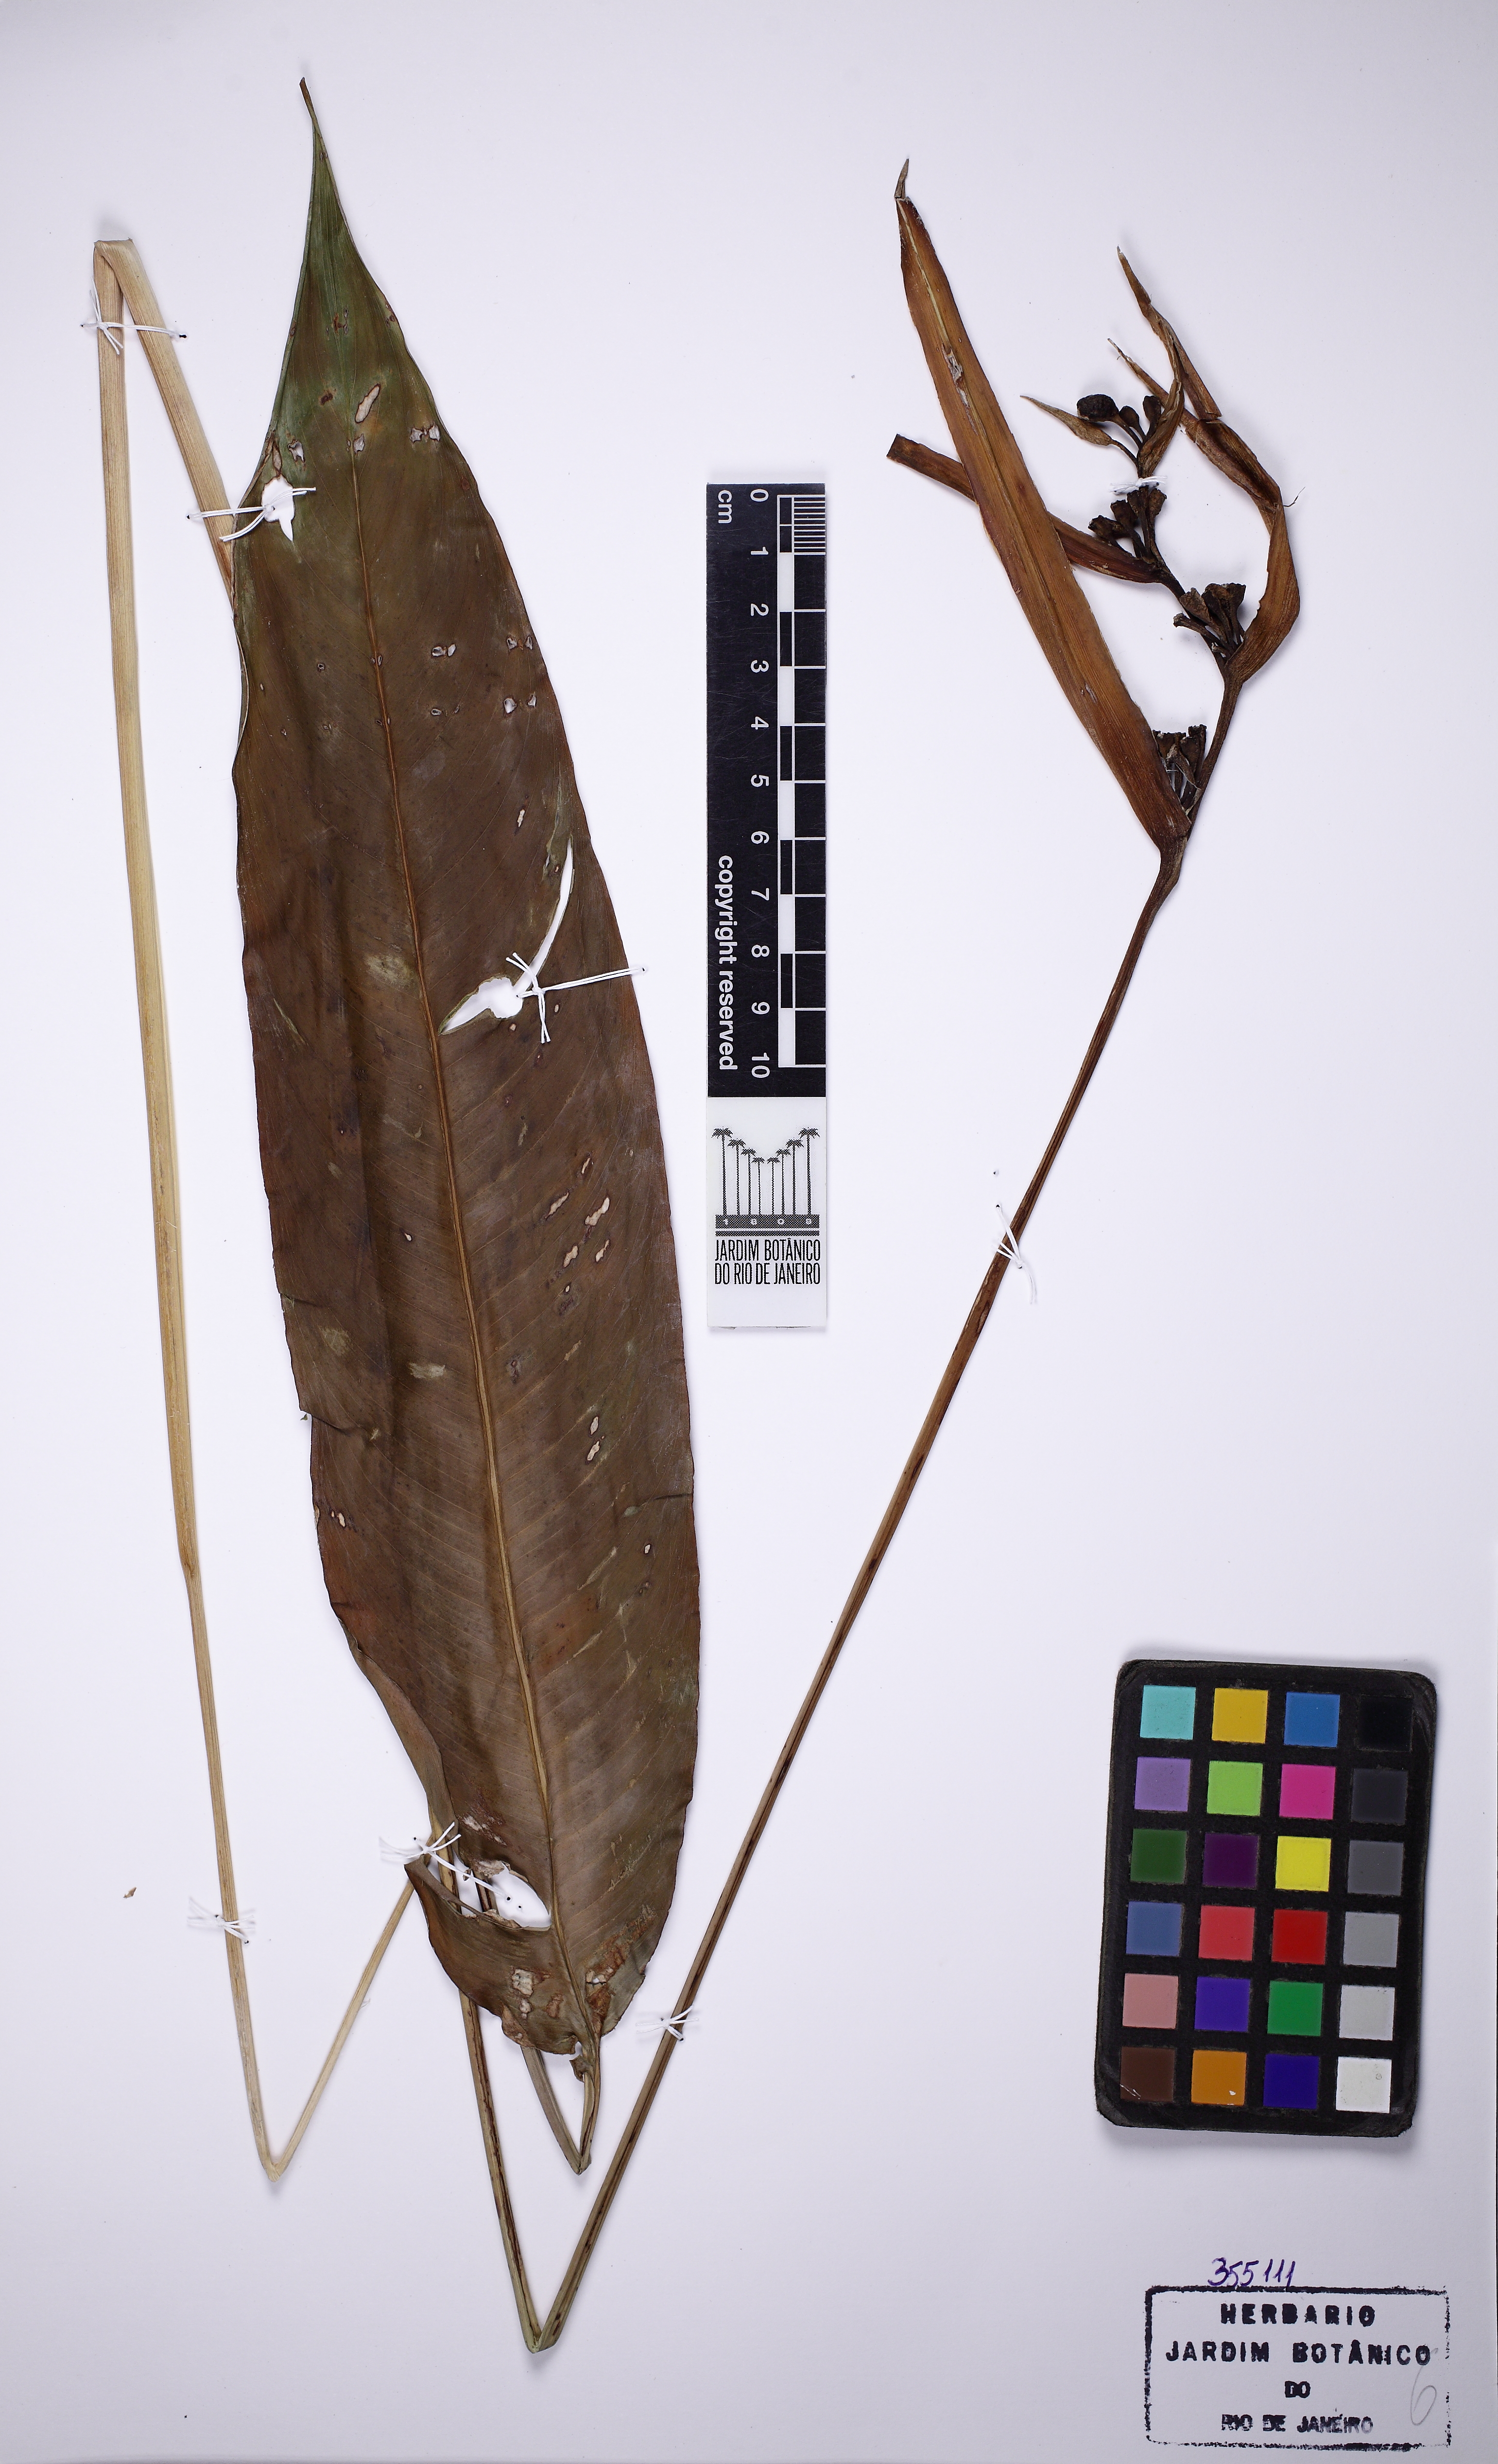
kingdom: Plantae
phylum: Tracheophyta
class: Liliopsida
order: Zingiberales
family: Heliconiaceae
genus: Heliconia
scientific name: Heliconia psittacorum
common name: Parrot's-flower
